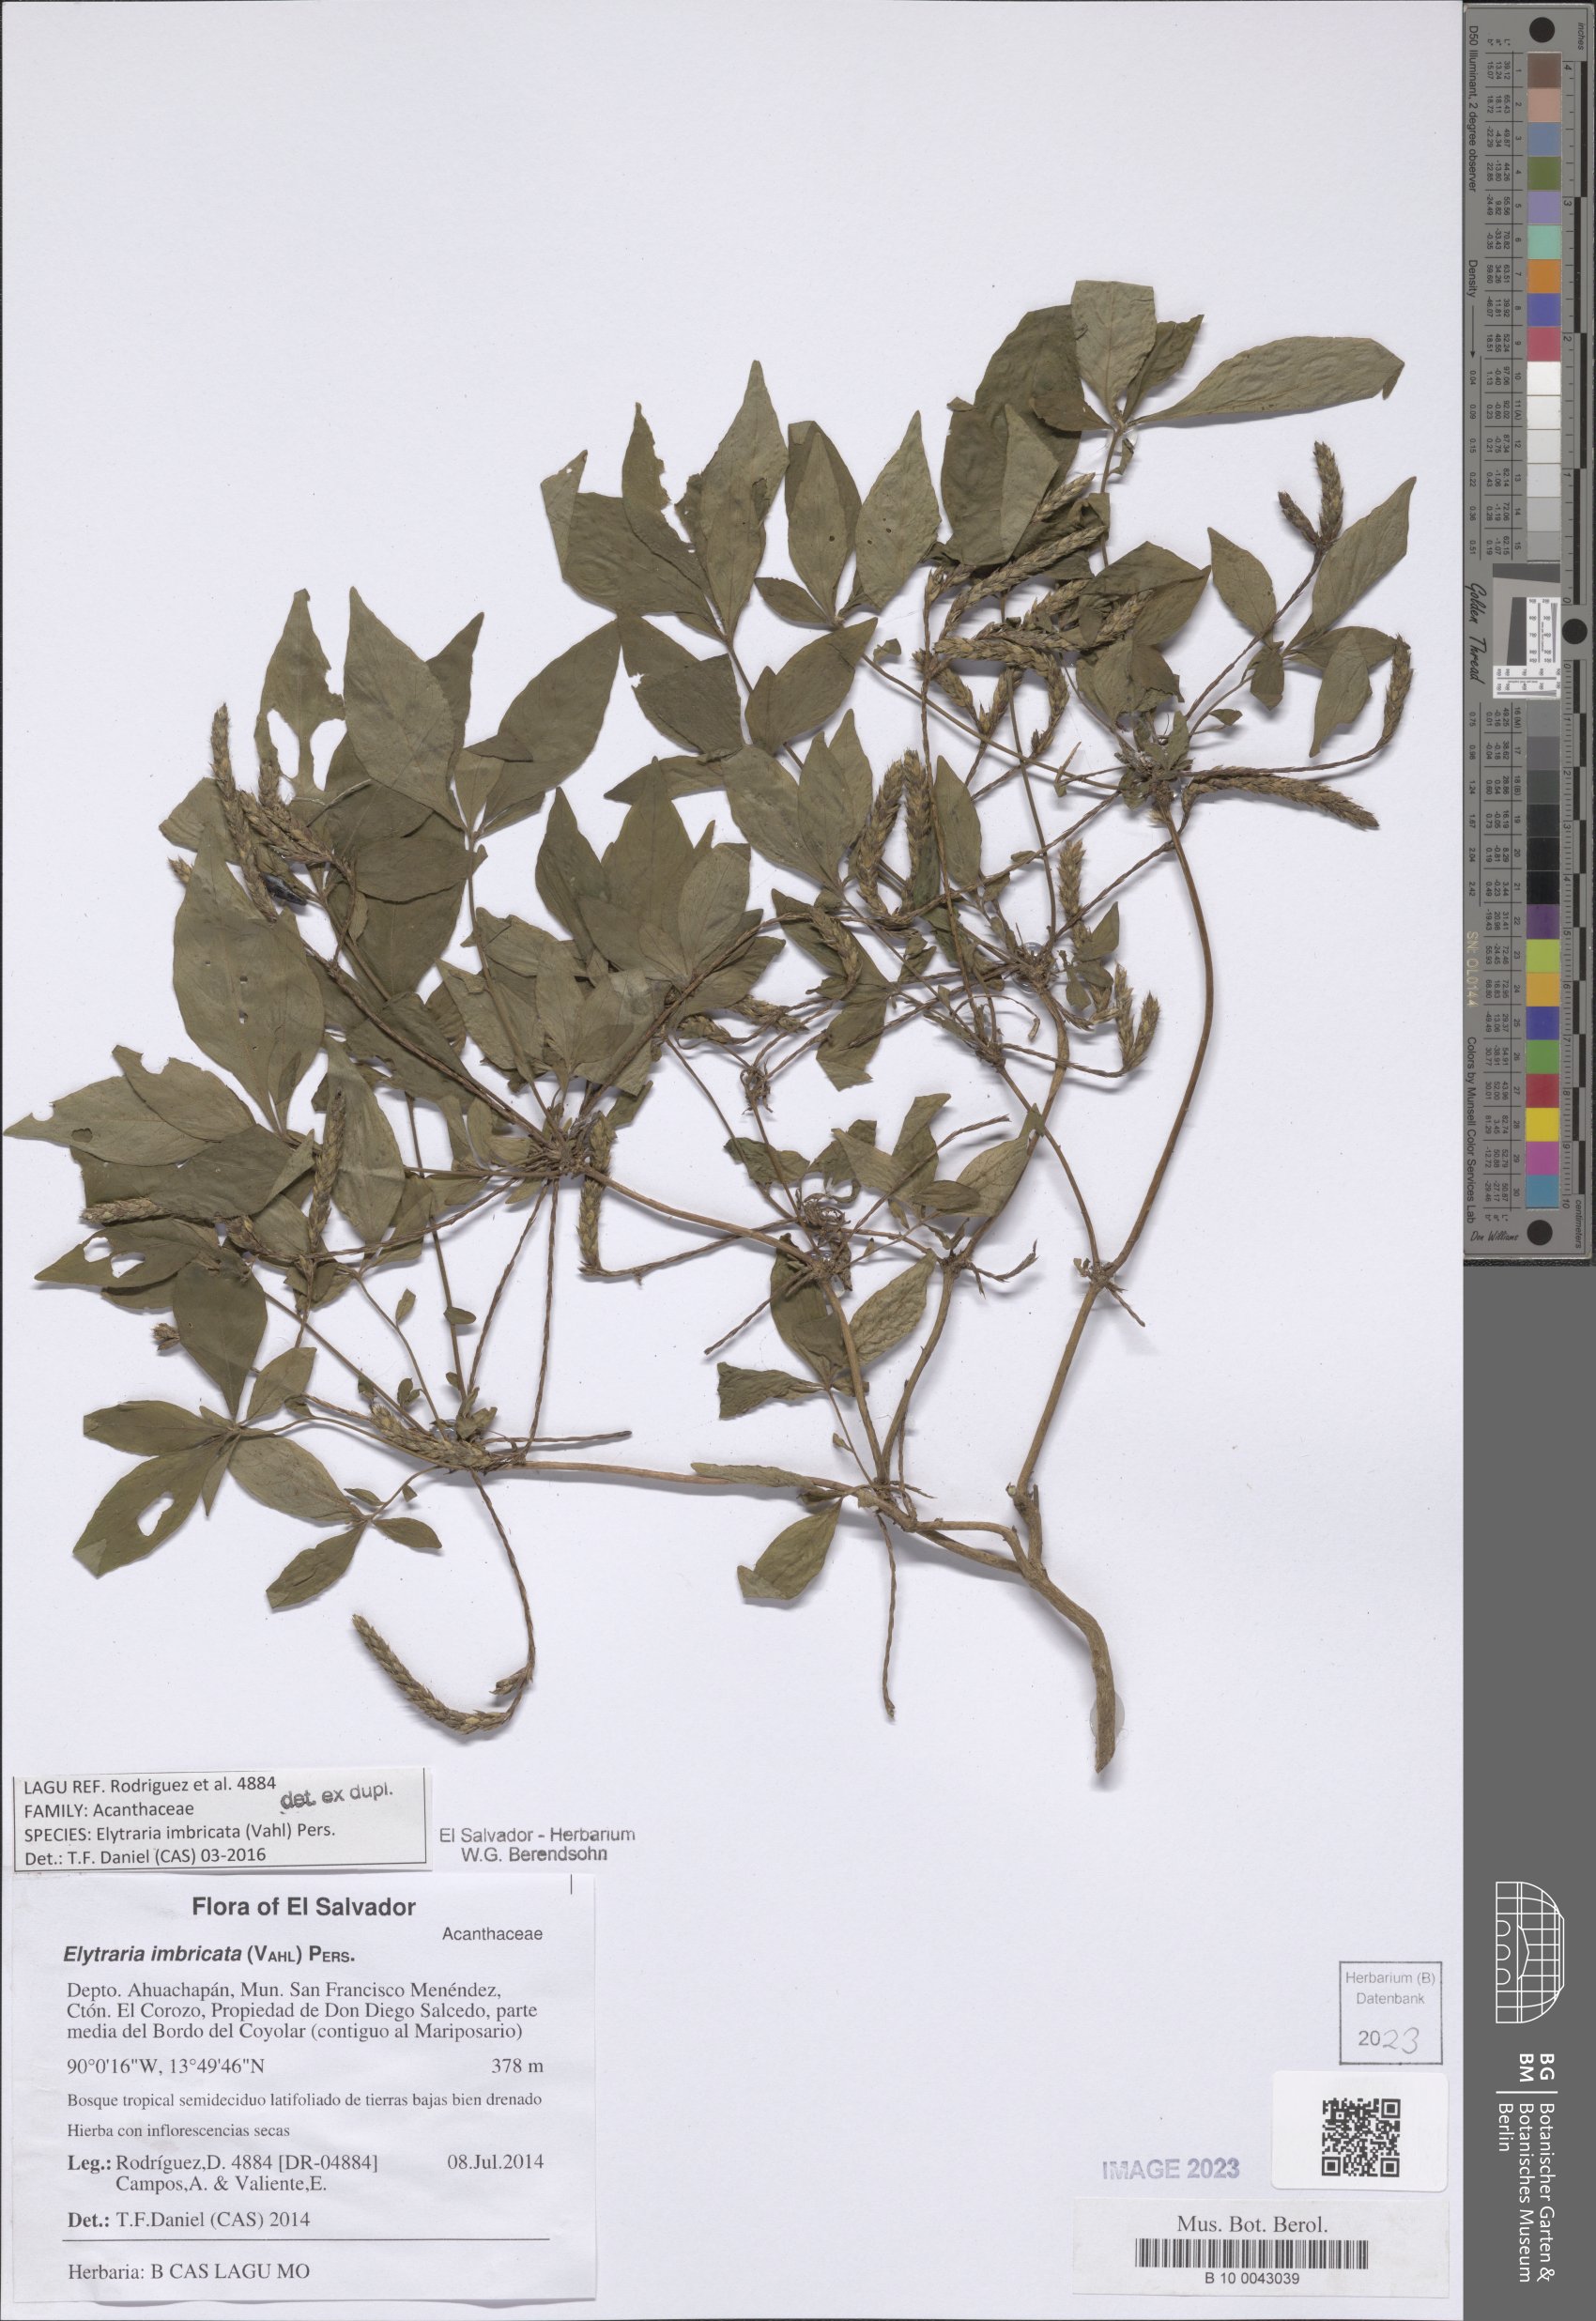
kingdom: Plantae
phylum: Tracheophyta
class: Magnoliopsida
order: Lamiales
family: Acanthaceae
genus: Elytraria
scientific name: Elytraria imbricata
